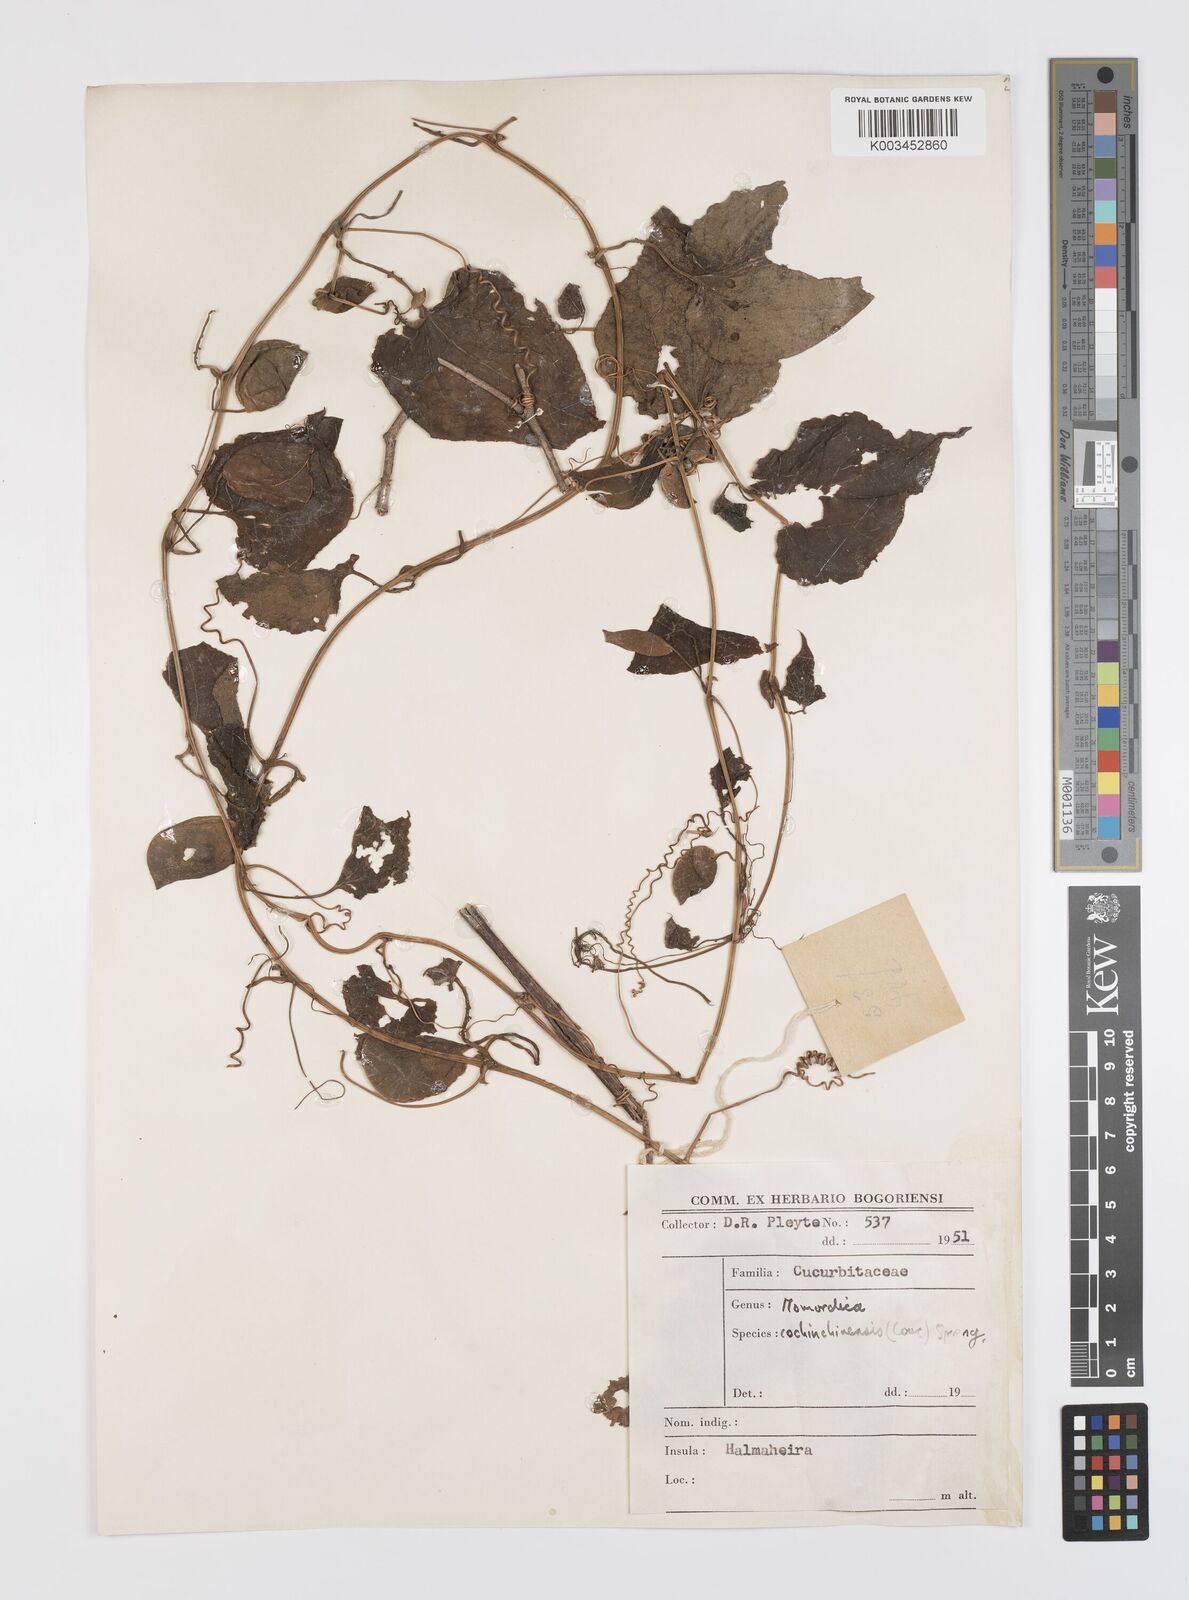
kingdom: Plantae
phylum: Tracheophyta
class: Magnoliopsida
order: Cucurbitales
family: Cucurbitaceae
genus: Momordica
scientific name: Momordica cochinchinensis
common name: Chinese bitter-cucumber
